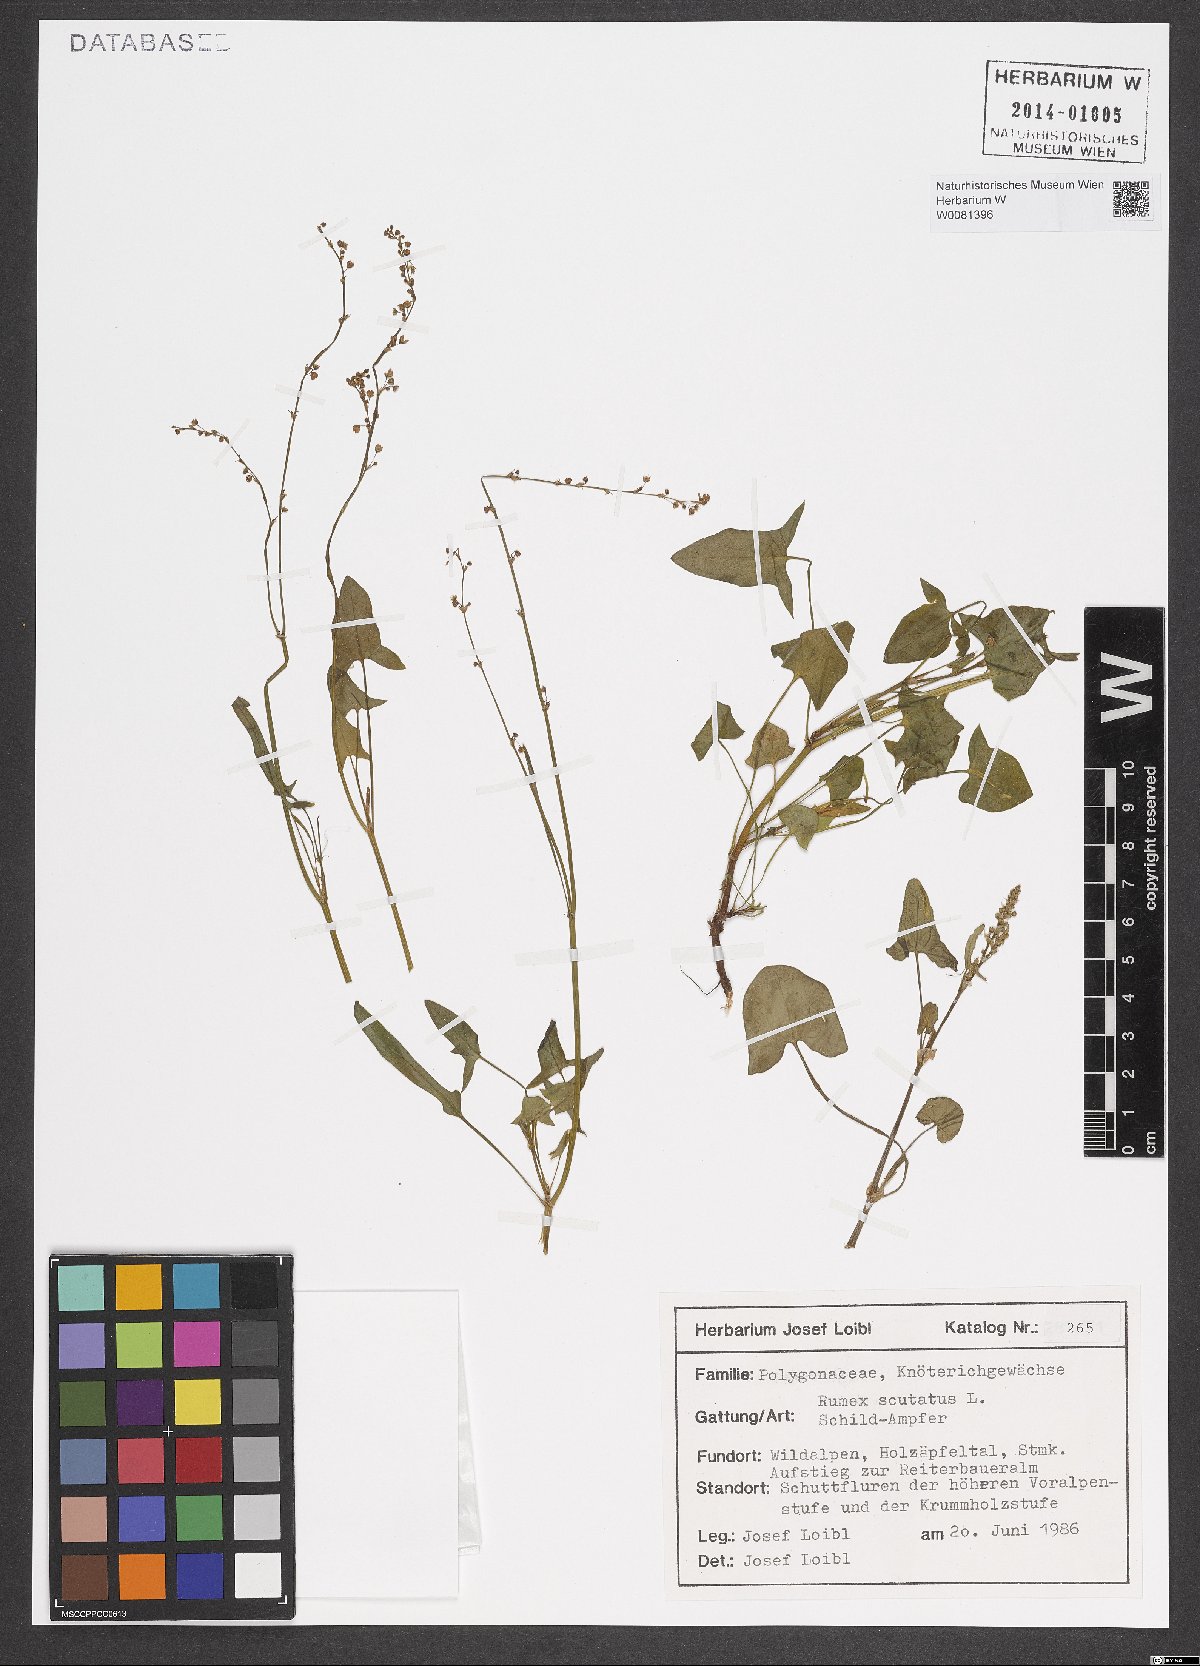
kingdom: Plantae
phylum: Tracheophyta
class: Magnoliopsida
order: Caryophyllales
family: Polygonaceae
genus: Rumex
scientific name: Rumex scutatus
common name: French sorrel
